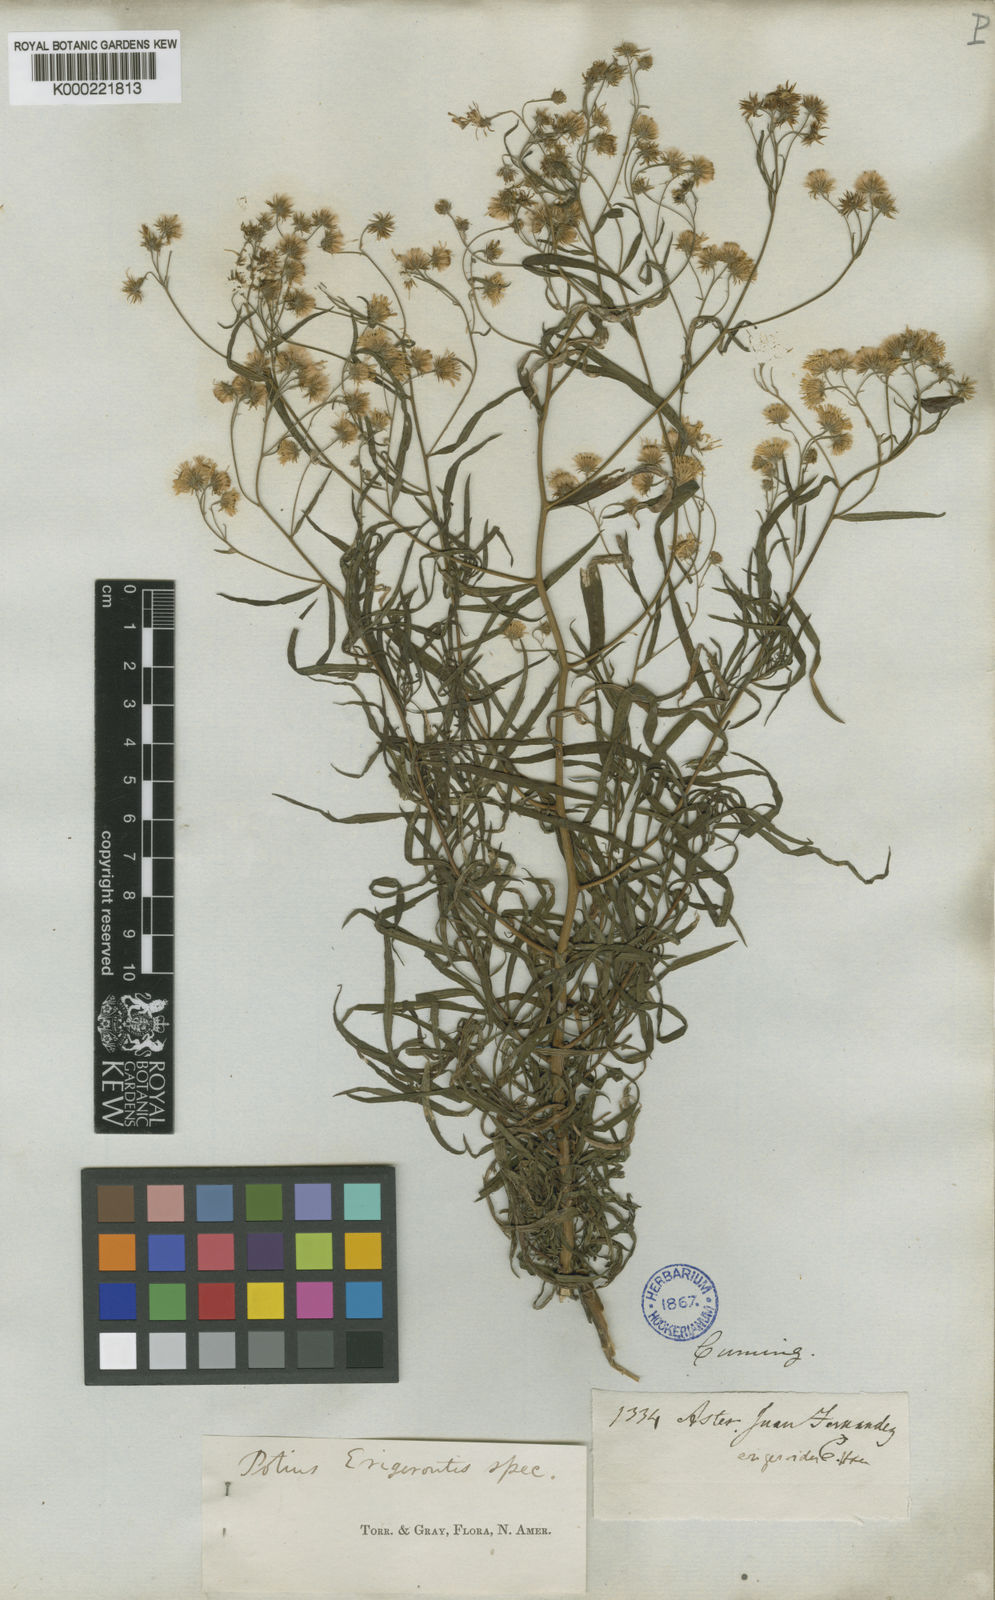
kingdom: Plantae
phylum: Tracheophyta
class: Magnoliopsida
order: Asterales
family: Asteraceae
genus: Erigeron
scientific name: Erigeron ingae
